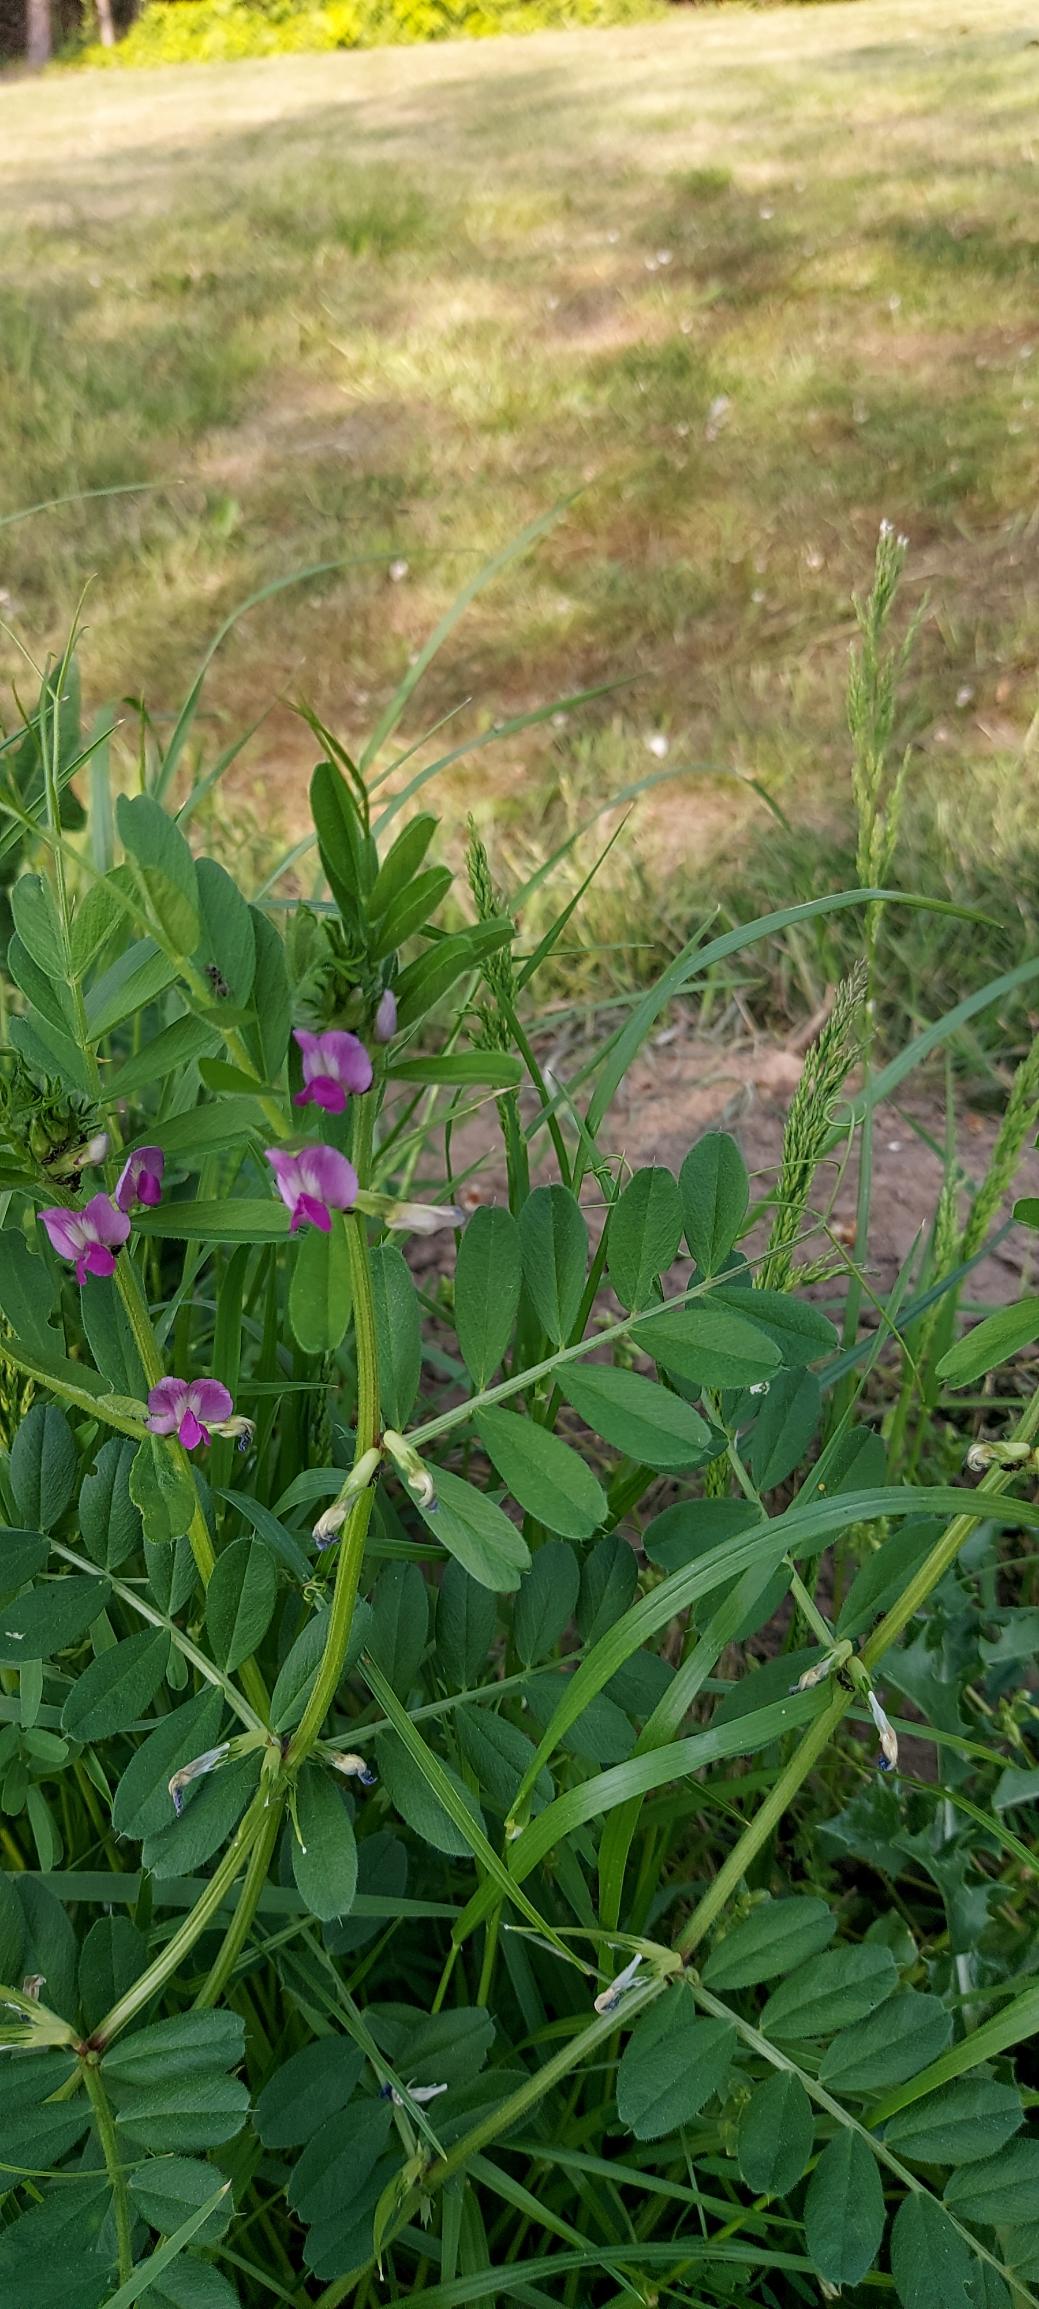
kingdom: Plantae
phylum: Tracheophyta
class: Magnoliopsida
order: Fabales
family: Fabaceae
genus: Vicia
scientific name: Vicia sativa
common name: Foder-vikke
